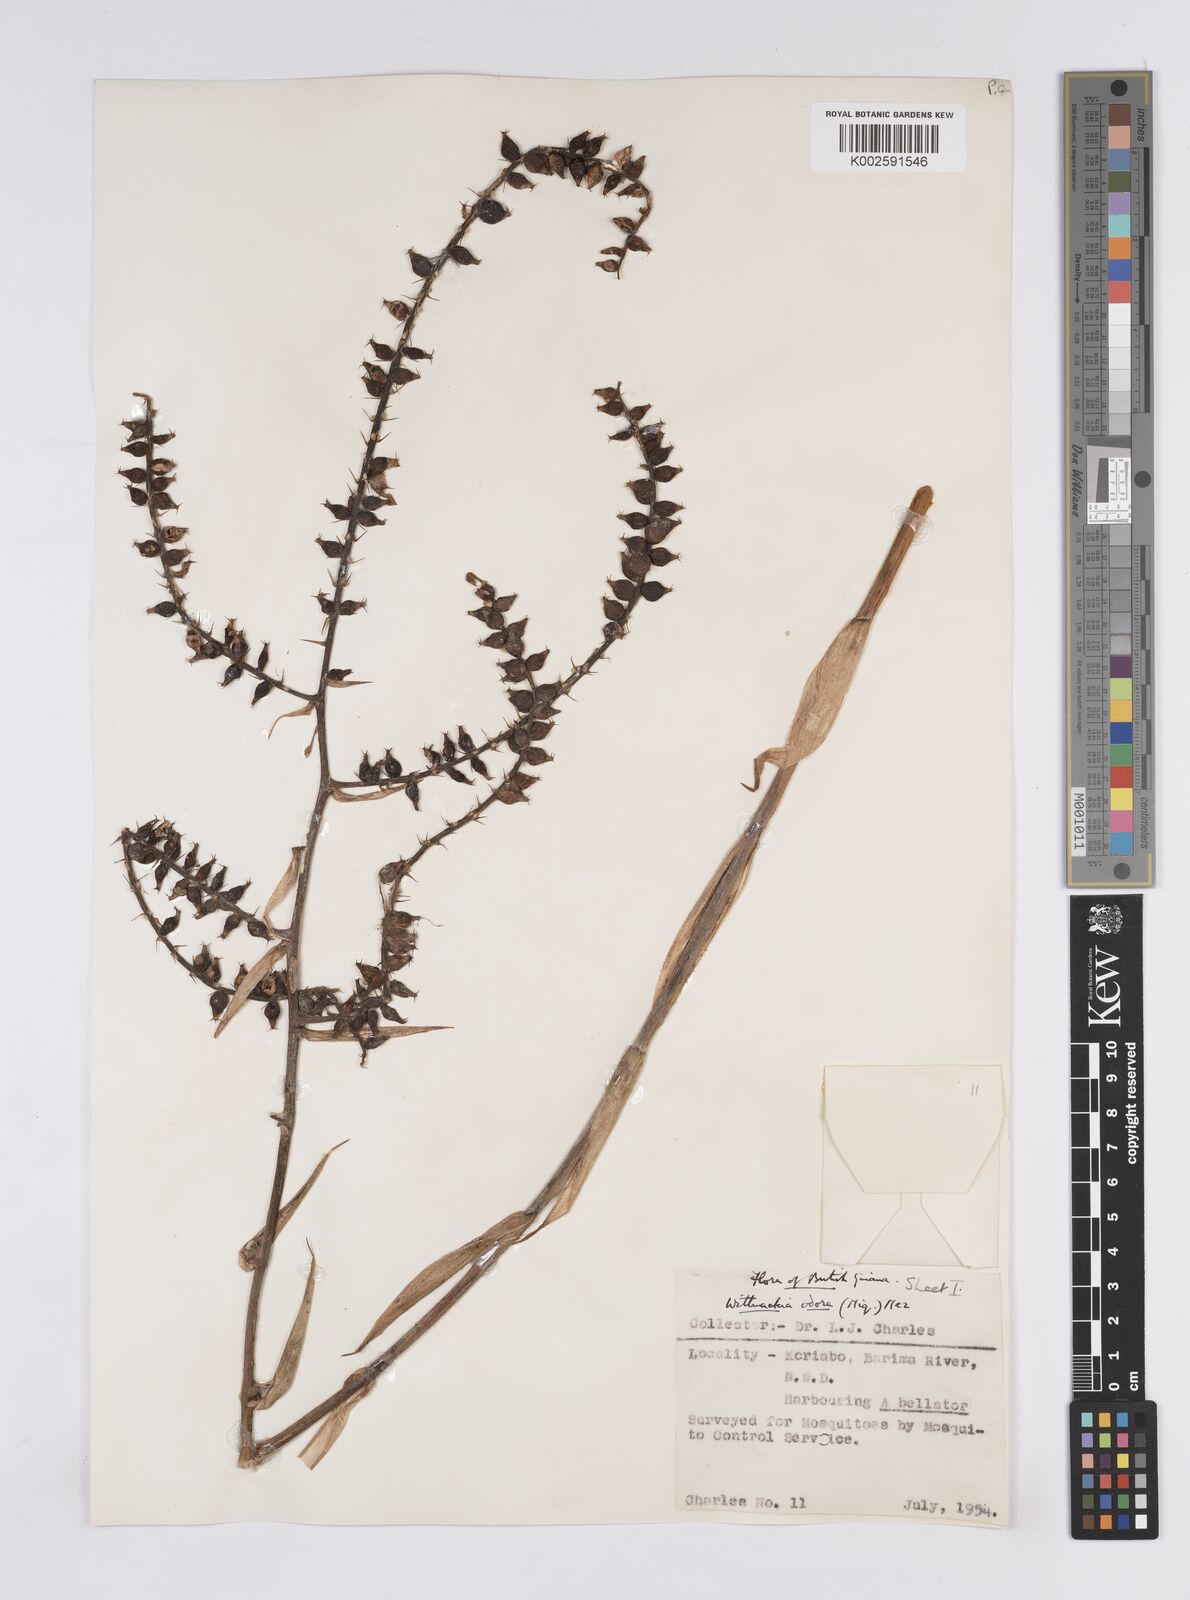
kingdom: Plantae
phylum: Tracheophyta
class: Liliopsida
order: Poales
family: Bromeliaceae
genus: Aechmea
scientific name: Aechmea
